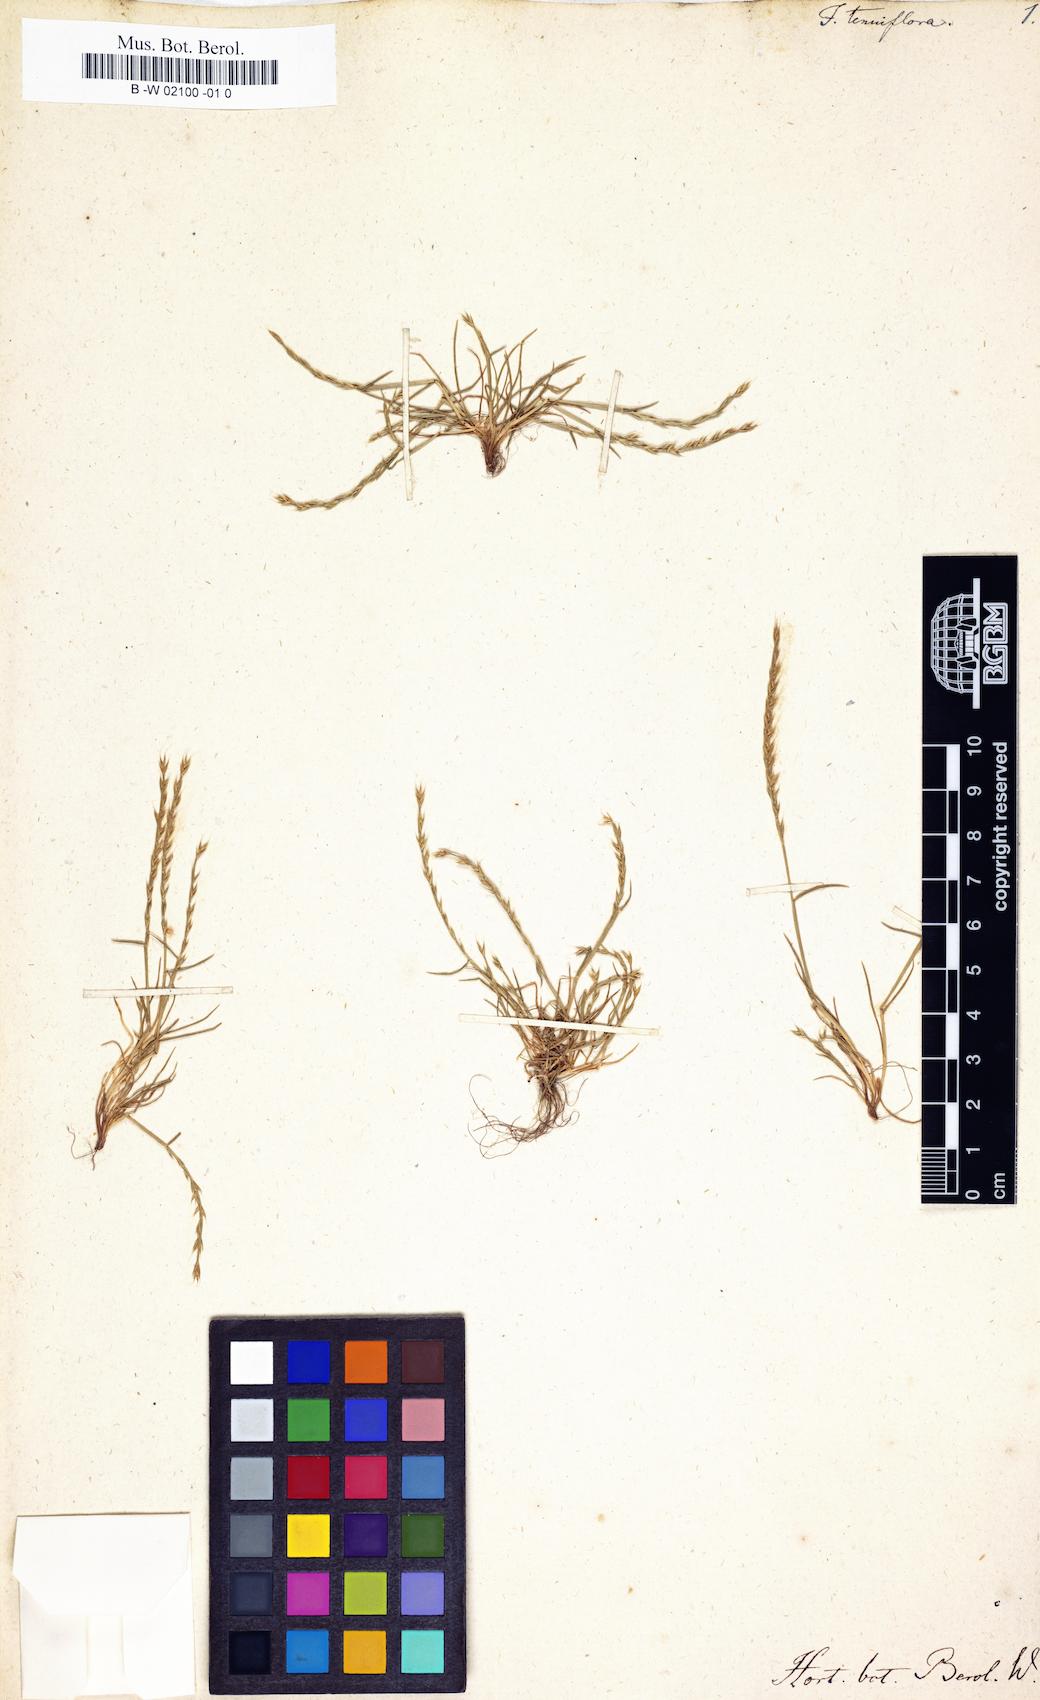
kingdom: Plantae
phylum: Tracheophyta
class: Liliopsida
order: Poales
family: Poaceae
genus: Festuca
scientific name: Festuca maritima
